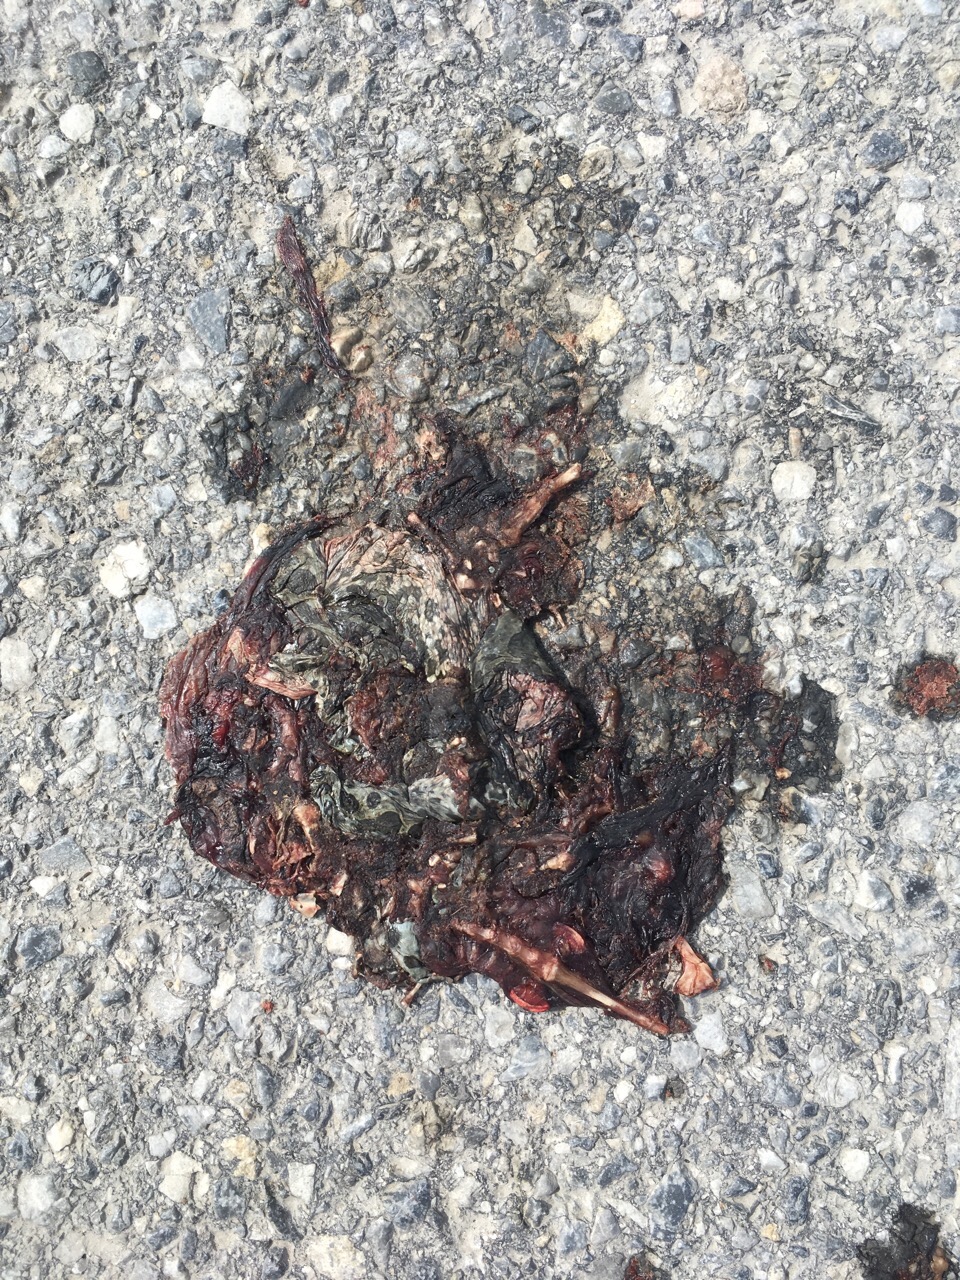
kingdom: Animalia
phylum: Chordata
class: Amphibia
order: Anura
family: Bufonidae
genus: Bufotes
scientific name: Bufotes viridis
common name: European green toad
